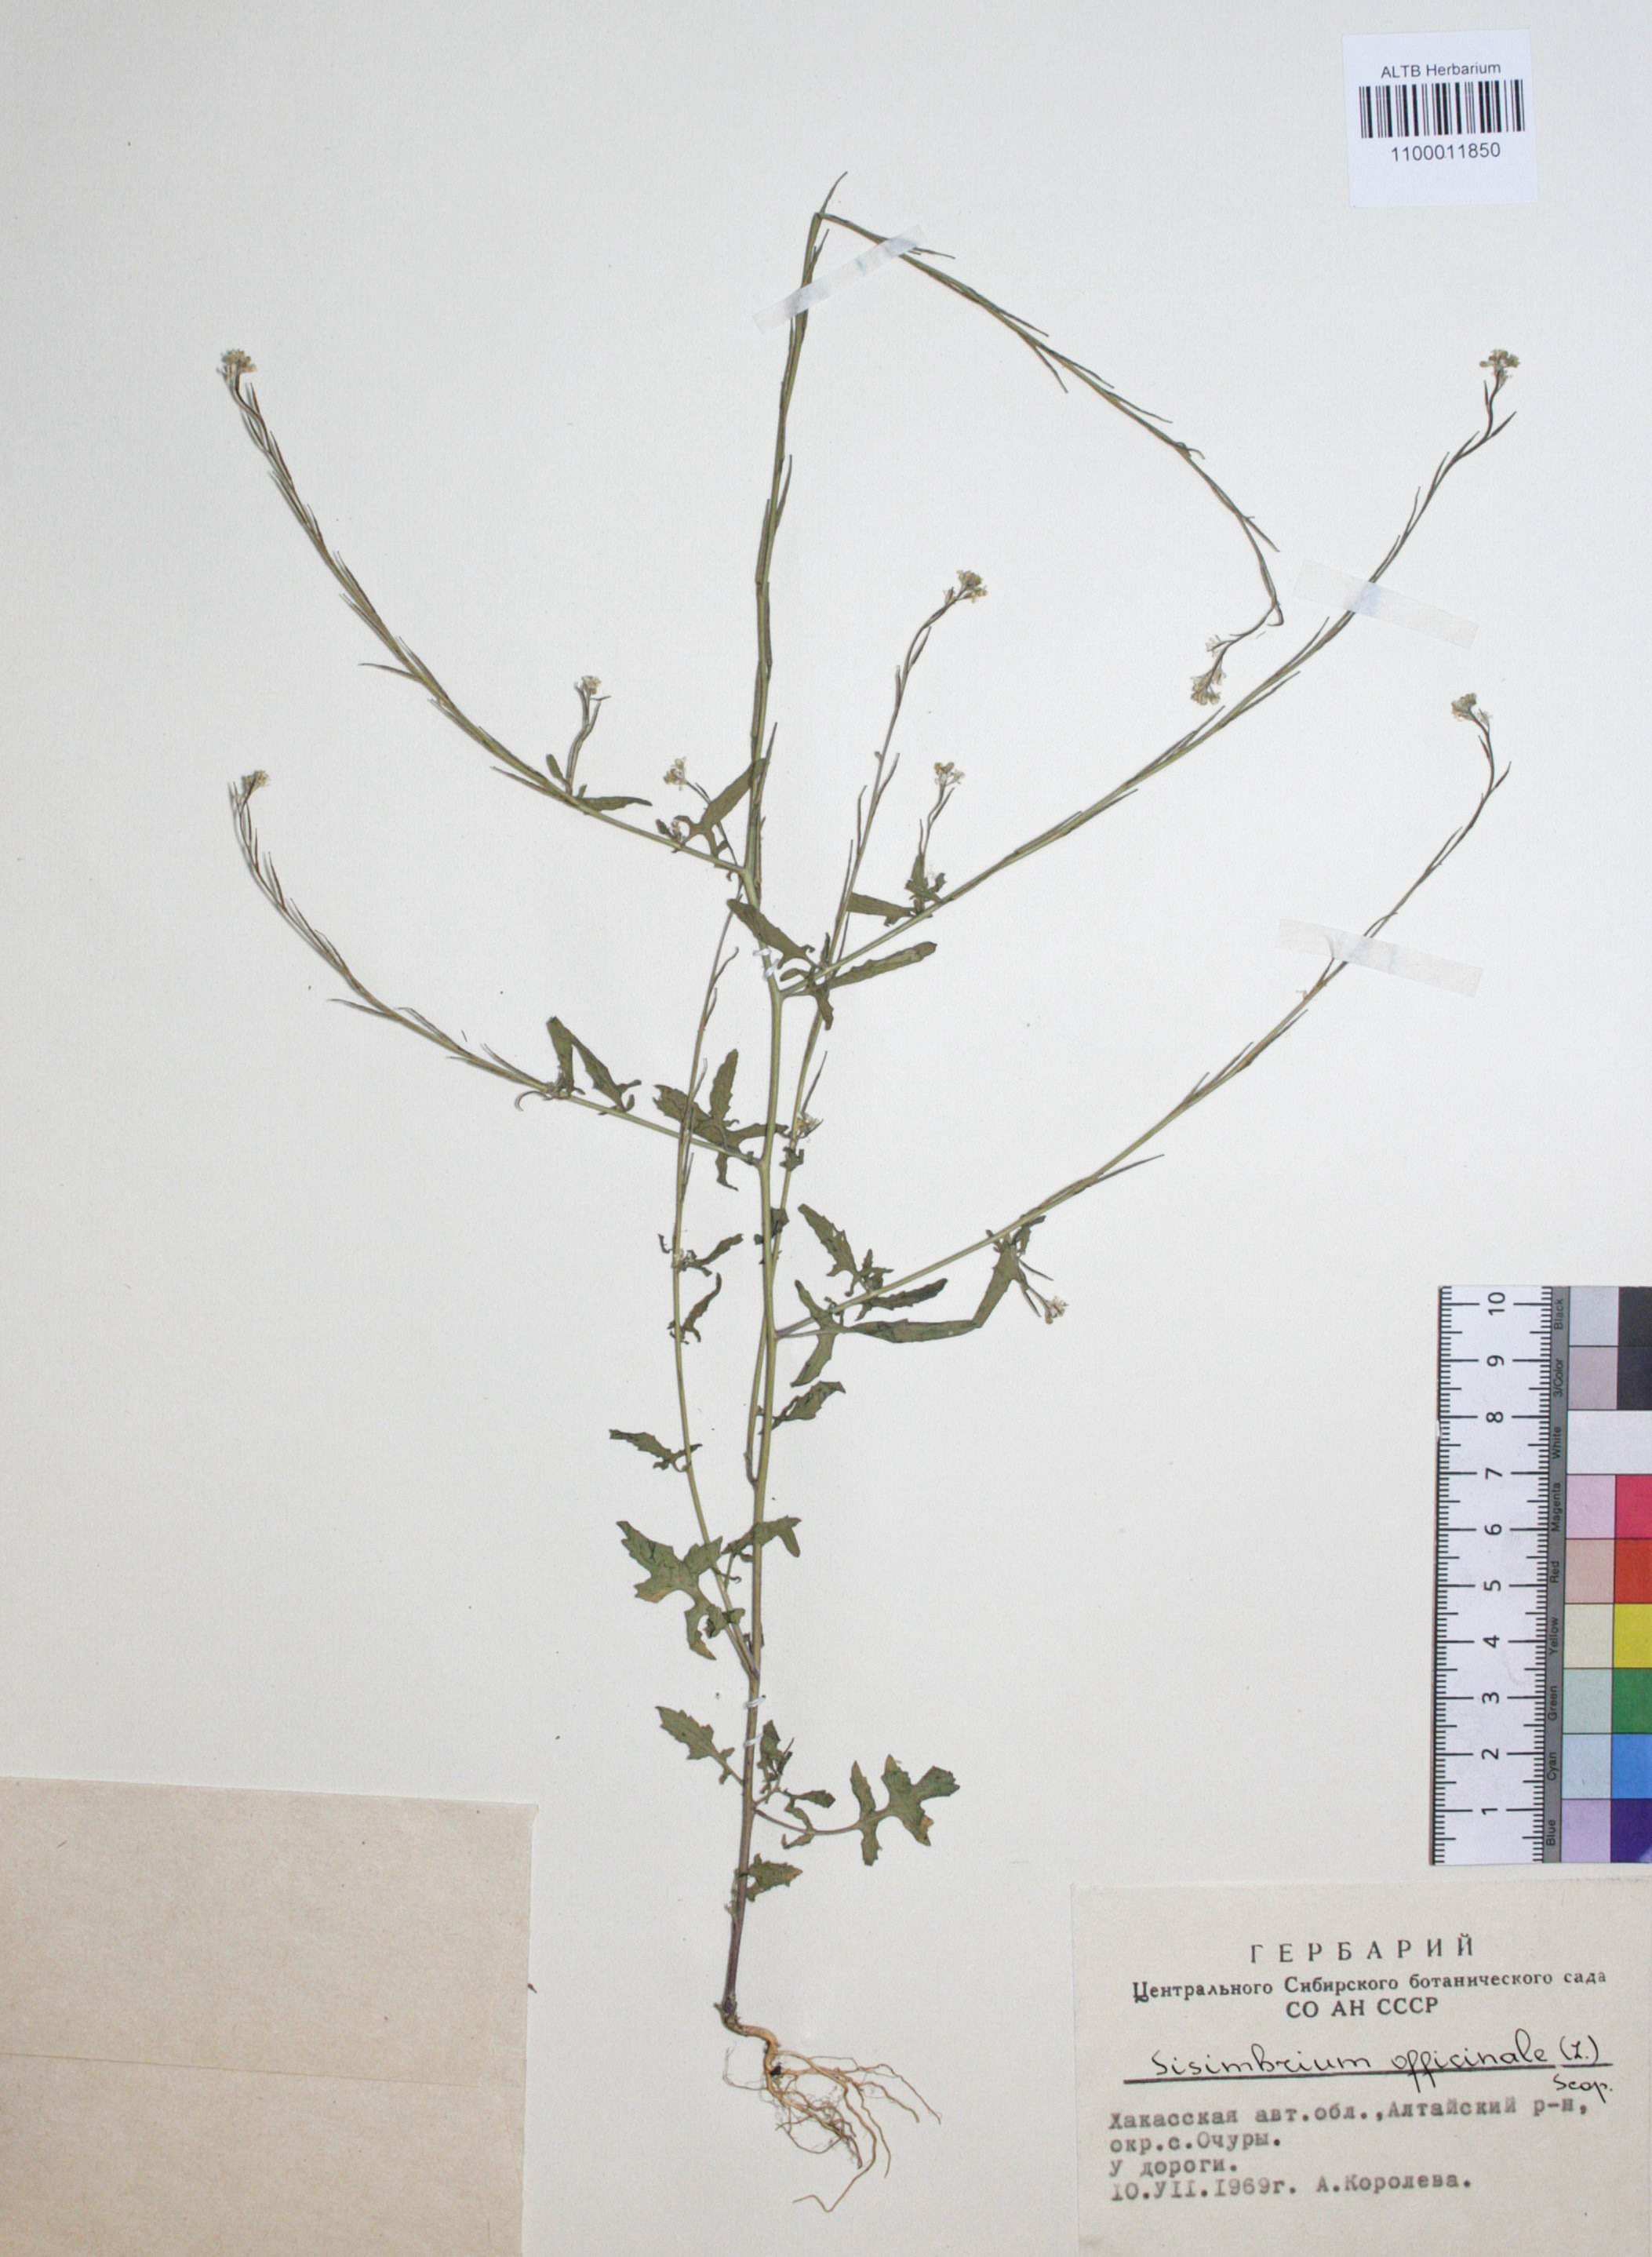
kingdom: Plantae
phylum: Tracheophyta
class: Magnoliopsida
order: Brassicales
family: Brassicaceae
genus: Sisymbrium
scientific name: Sisymbrium officinale
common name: Hedge mustard
